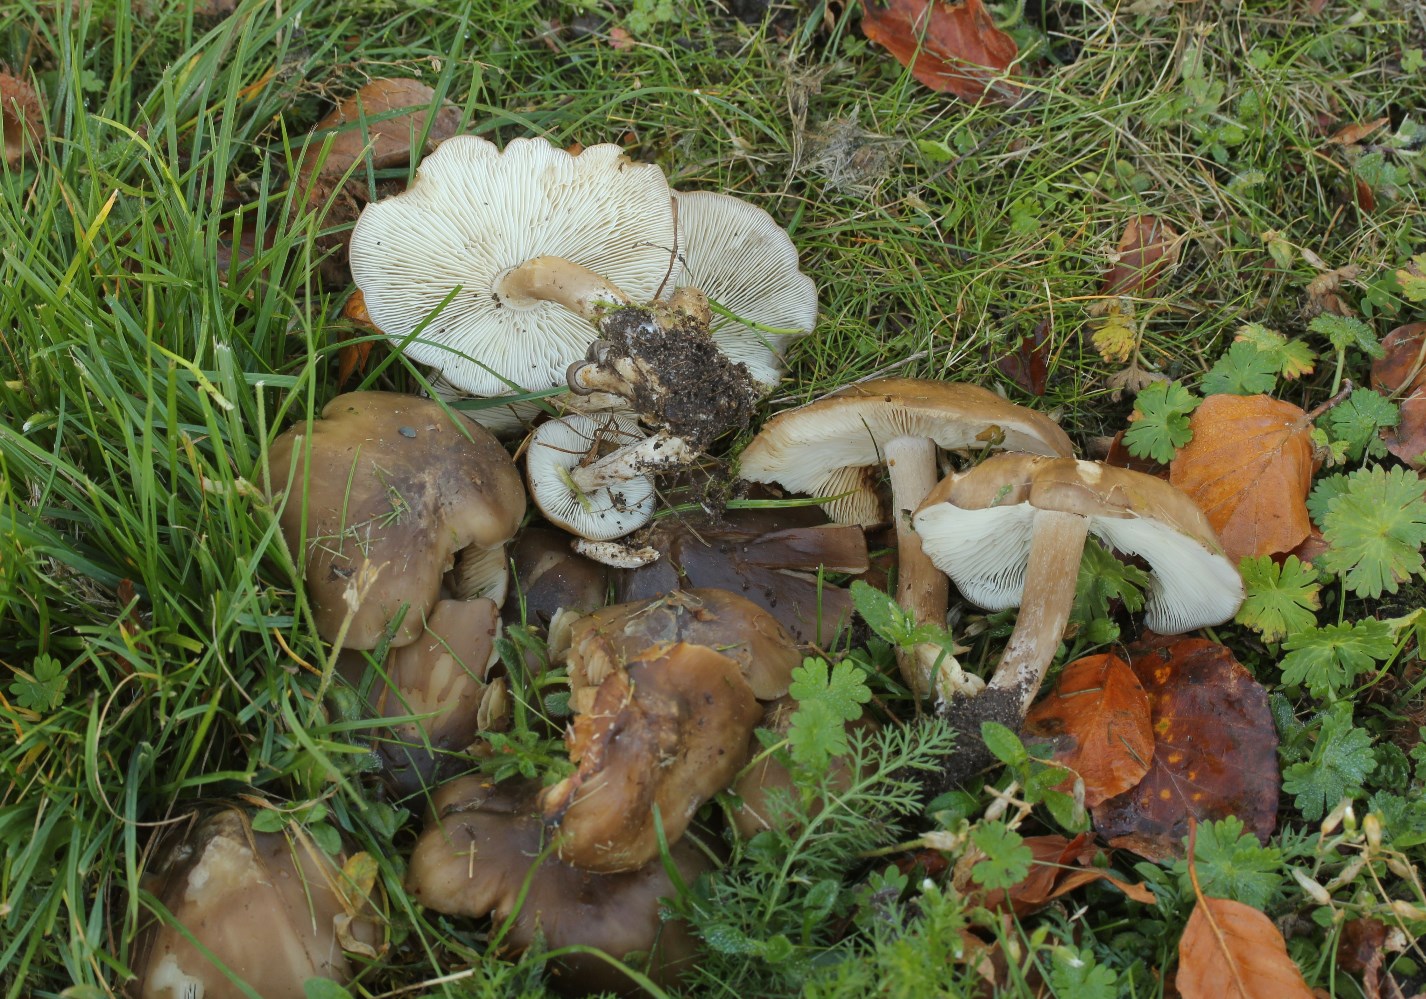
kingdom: Fungi
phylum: Basidiomycota
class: Agaricomycetes
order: Agaricales
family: Lyophyllaceae
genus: Lyophyllum
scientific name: Lyophyllum decastes
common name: Clustered domecap
